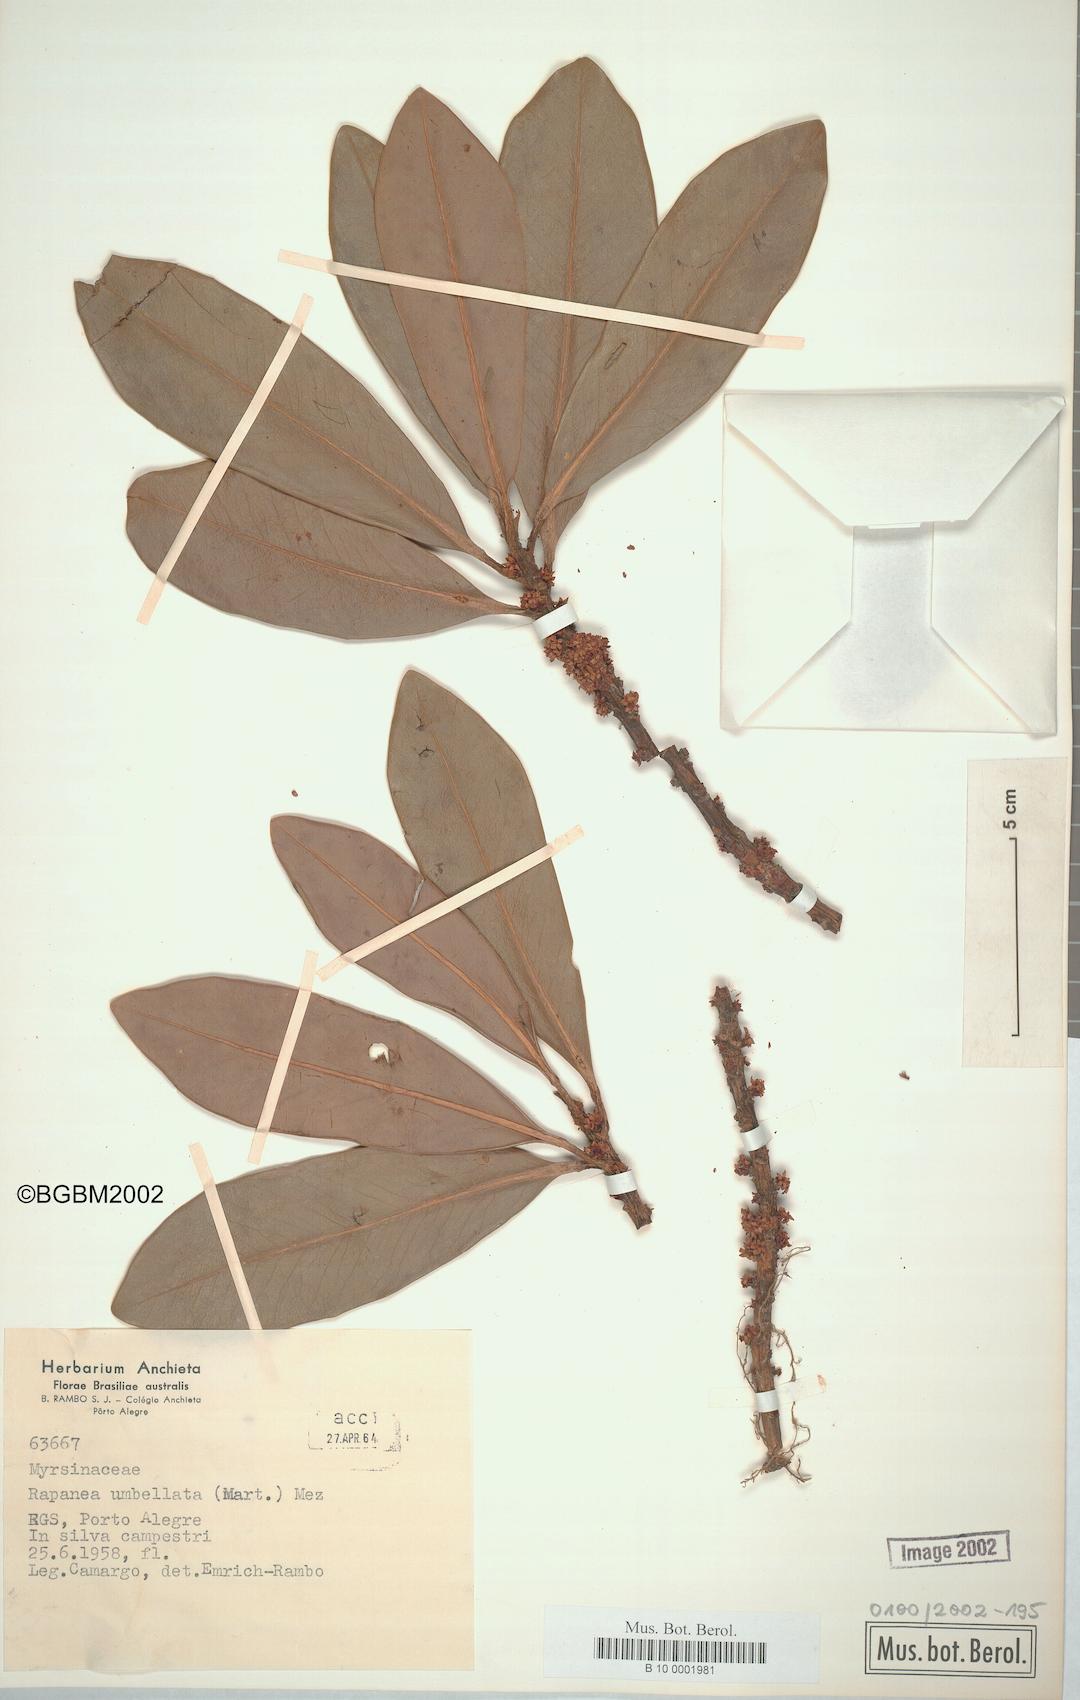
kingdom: Plantae
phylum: Tracheophyta
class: Magnoliopsida
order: Ericales
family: Primulaceae
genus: Myrsine
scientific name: Myrsine umbellata
